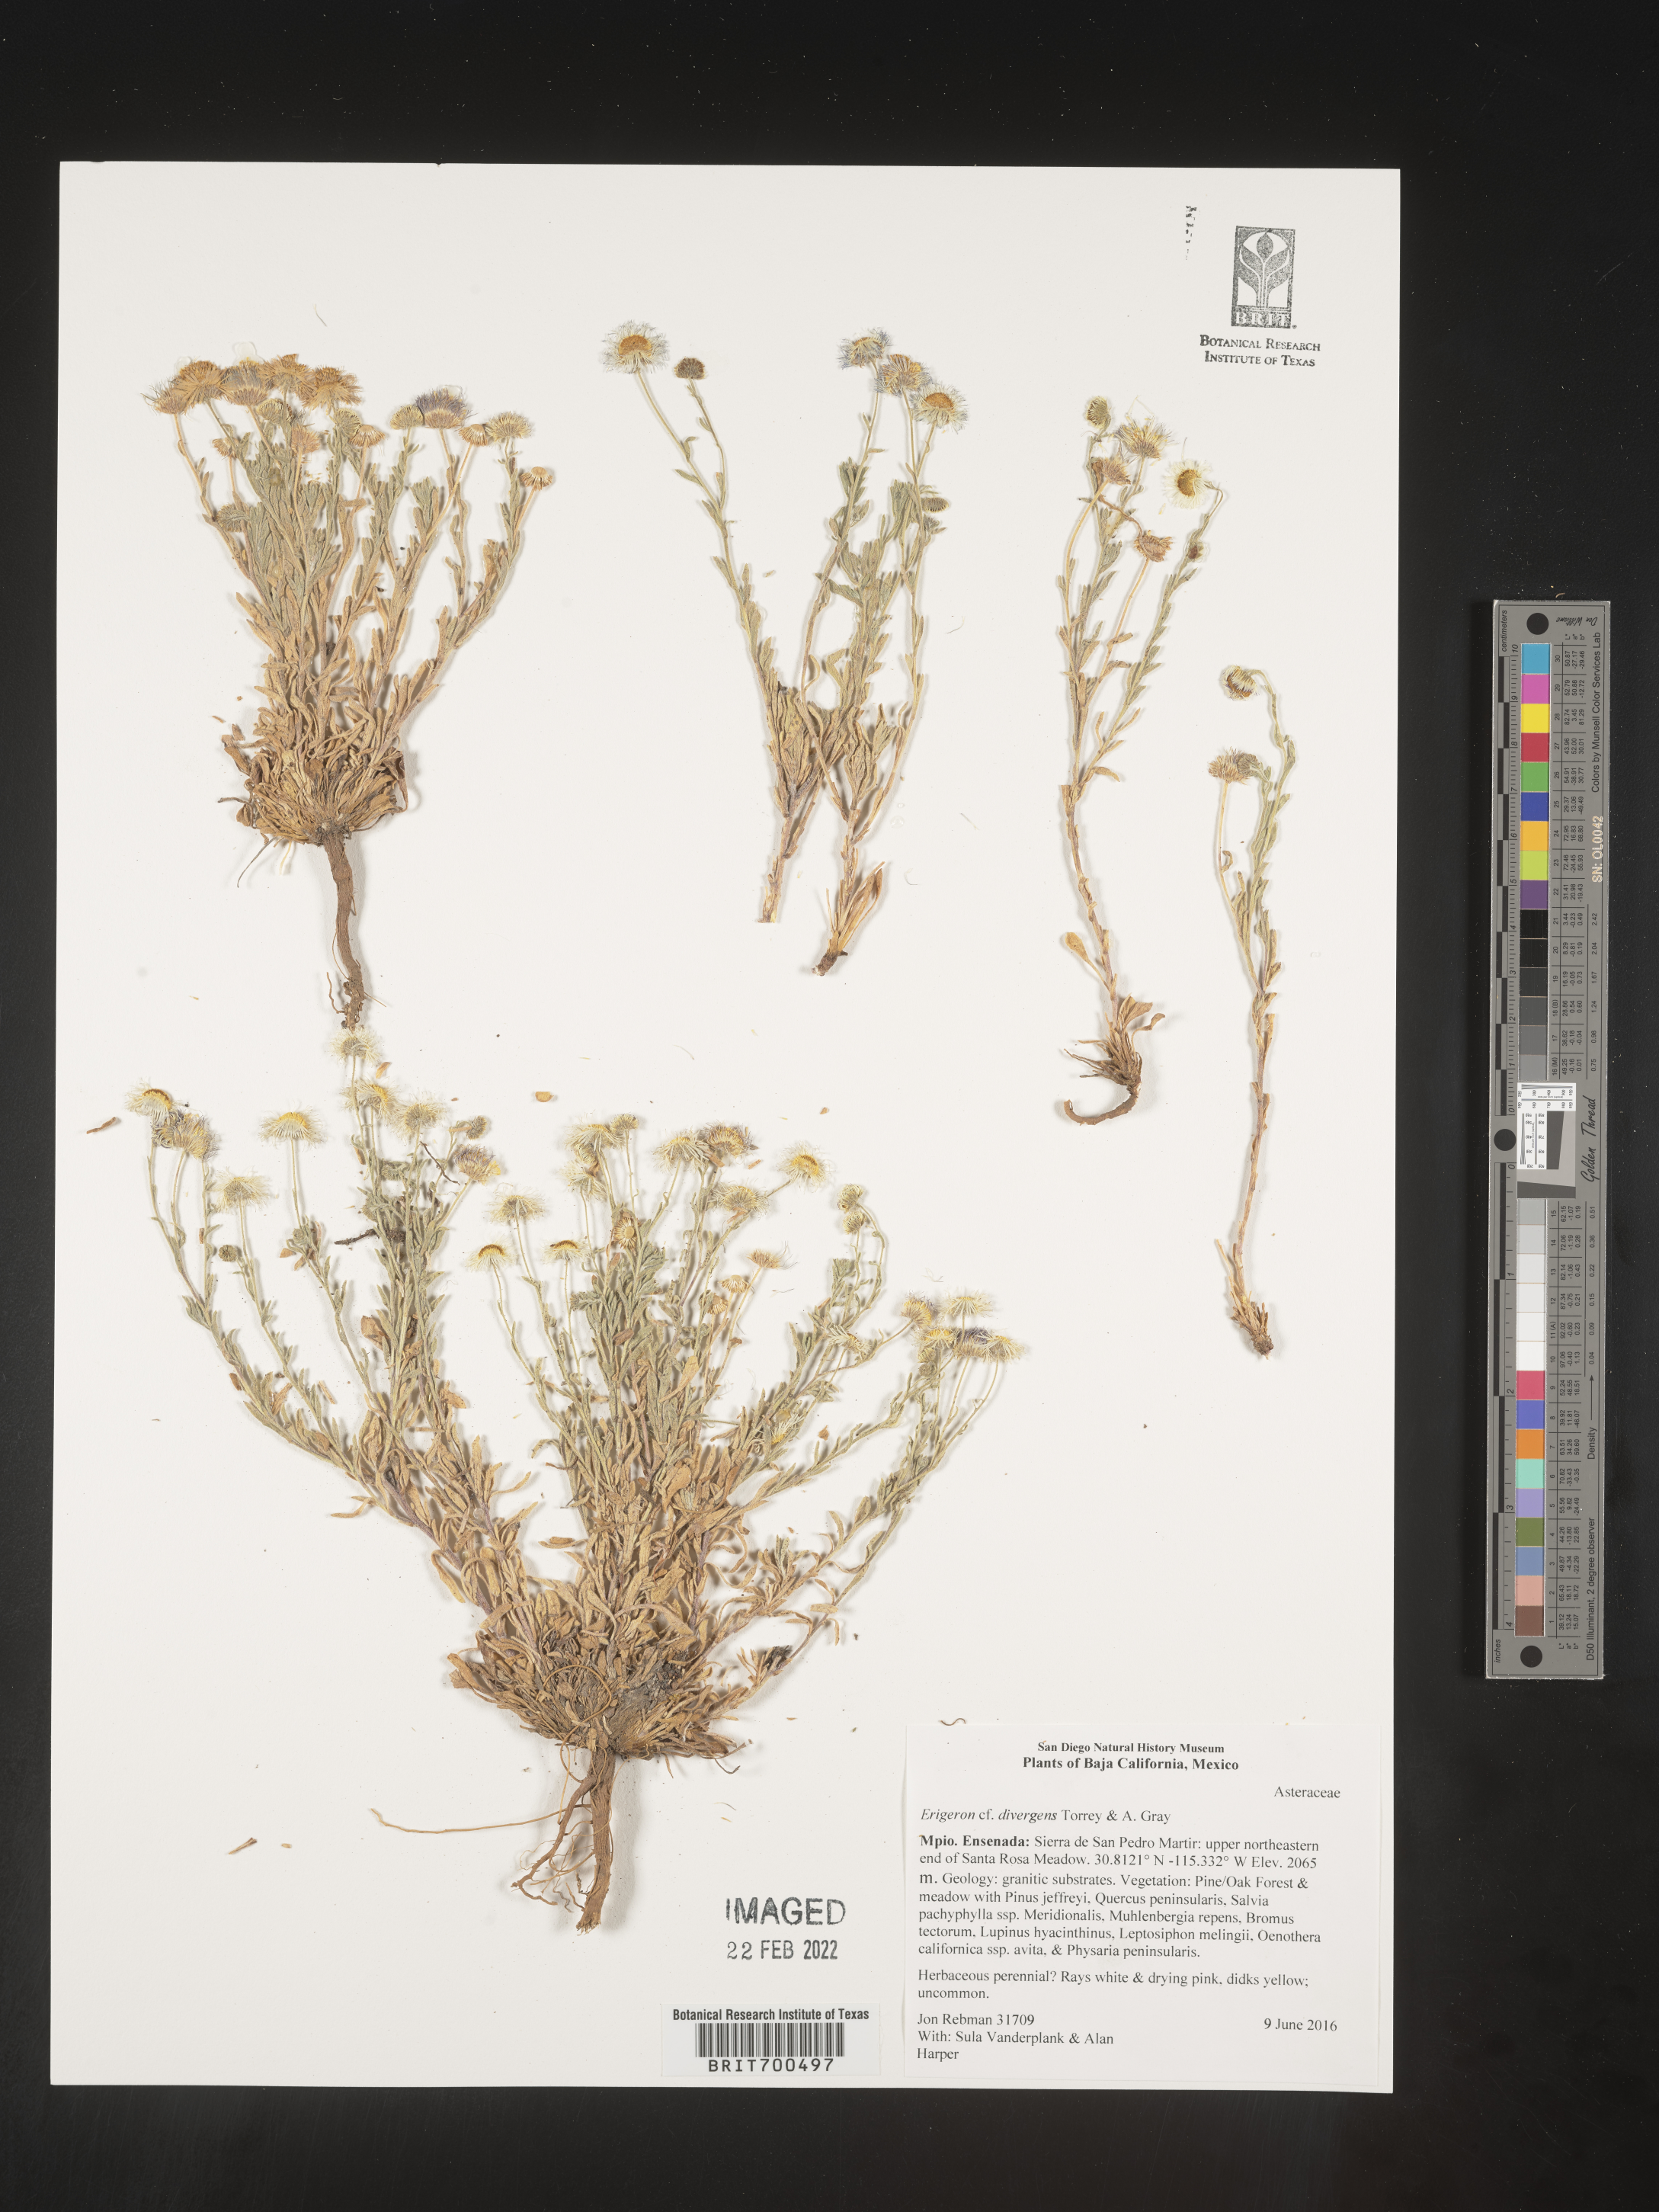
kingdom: Plantae
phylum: Tracheophyta
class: Magnoliopsida
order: Asterales
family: Asteraceae
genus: Erigeron
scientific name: Erigeron
